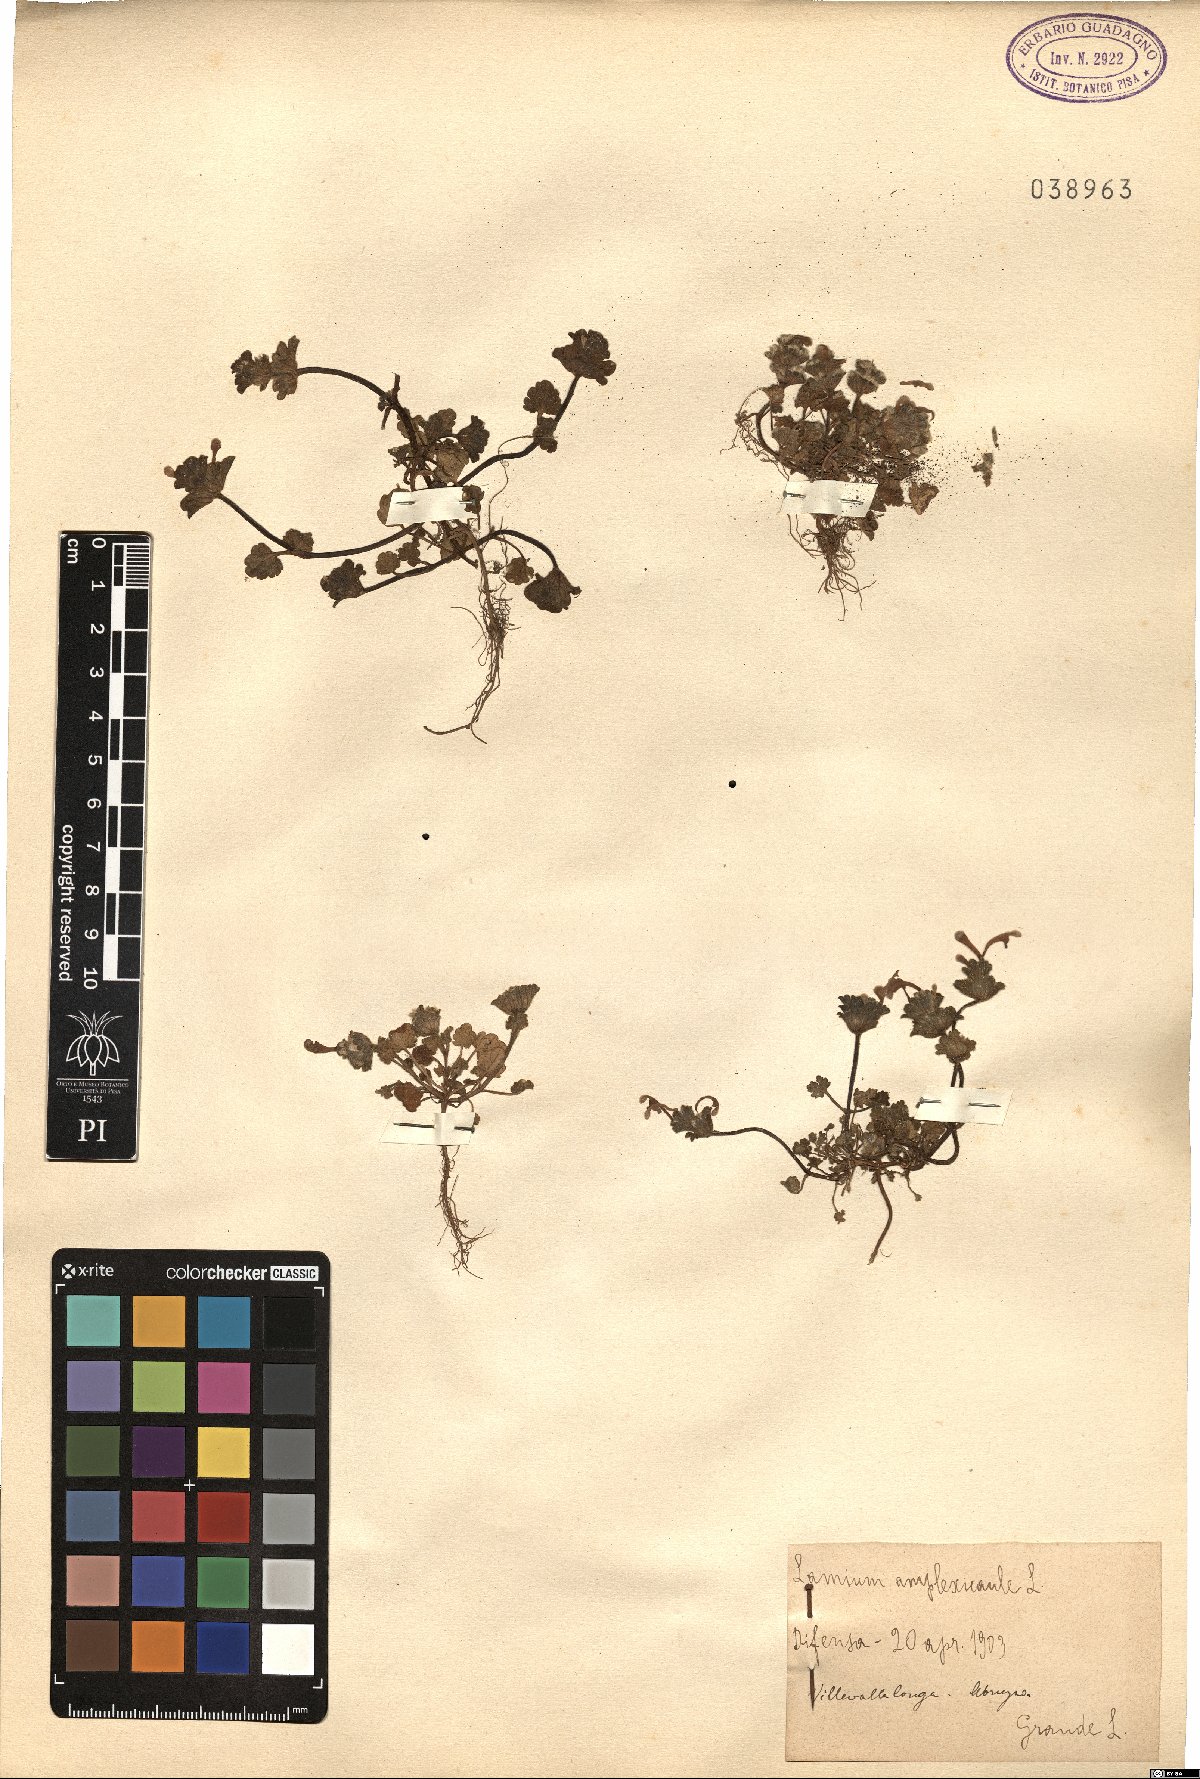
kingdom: Plantae
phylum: Tracheophyta
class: Magnoliopsida
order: Lamiales
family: Lamiaceae
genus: Lamium
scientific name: Lamium amplexicaule
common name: Henbit dead-nettle
